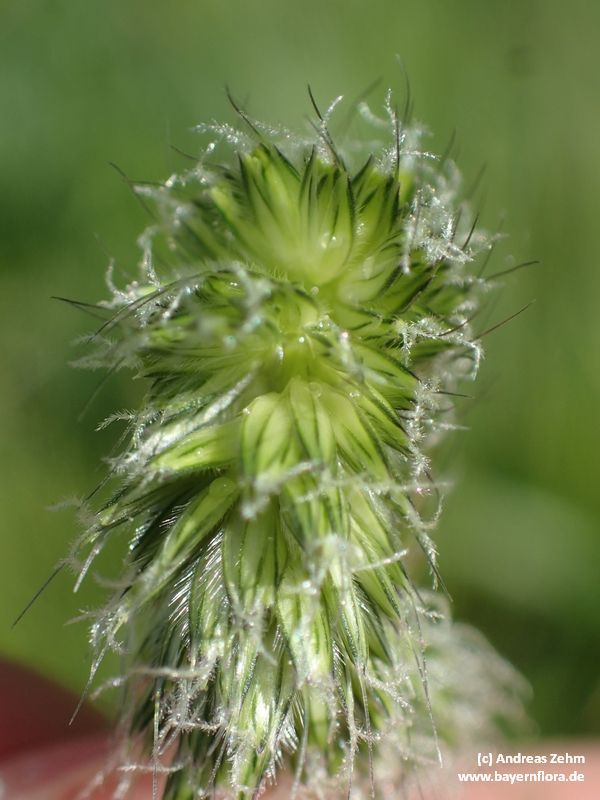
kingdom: Plantae
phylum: Tracheophyta
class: Liliopsida
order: Poales
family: Poaceae
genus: Alopecurus
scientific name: Alopecurus pratensis
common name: Meadow foxtail
